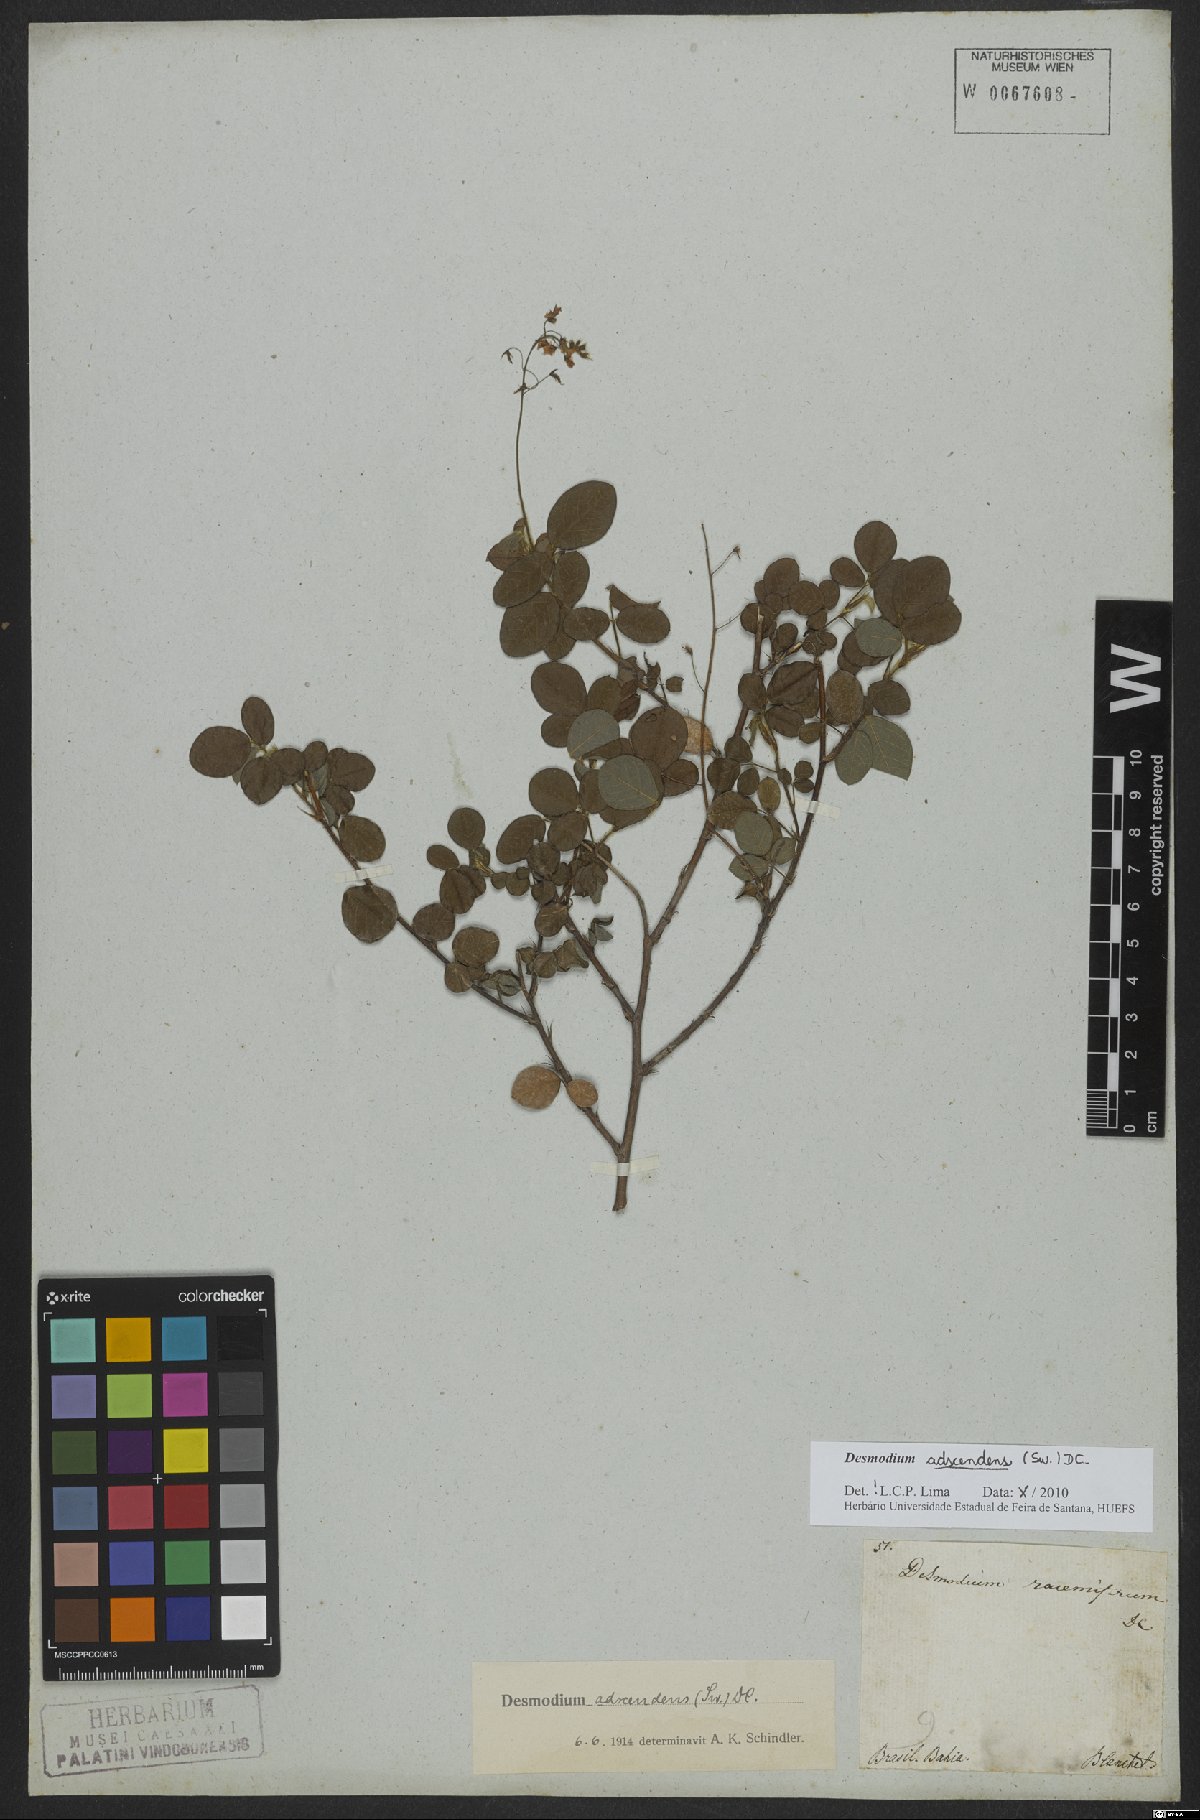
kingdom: Plantae
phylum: Tracheophyta
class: Magnoliopsida
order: Fabales
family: Fabaceae
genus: Grona
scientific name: Grona adscendens
